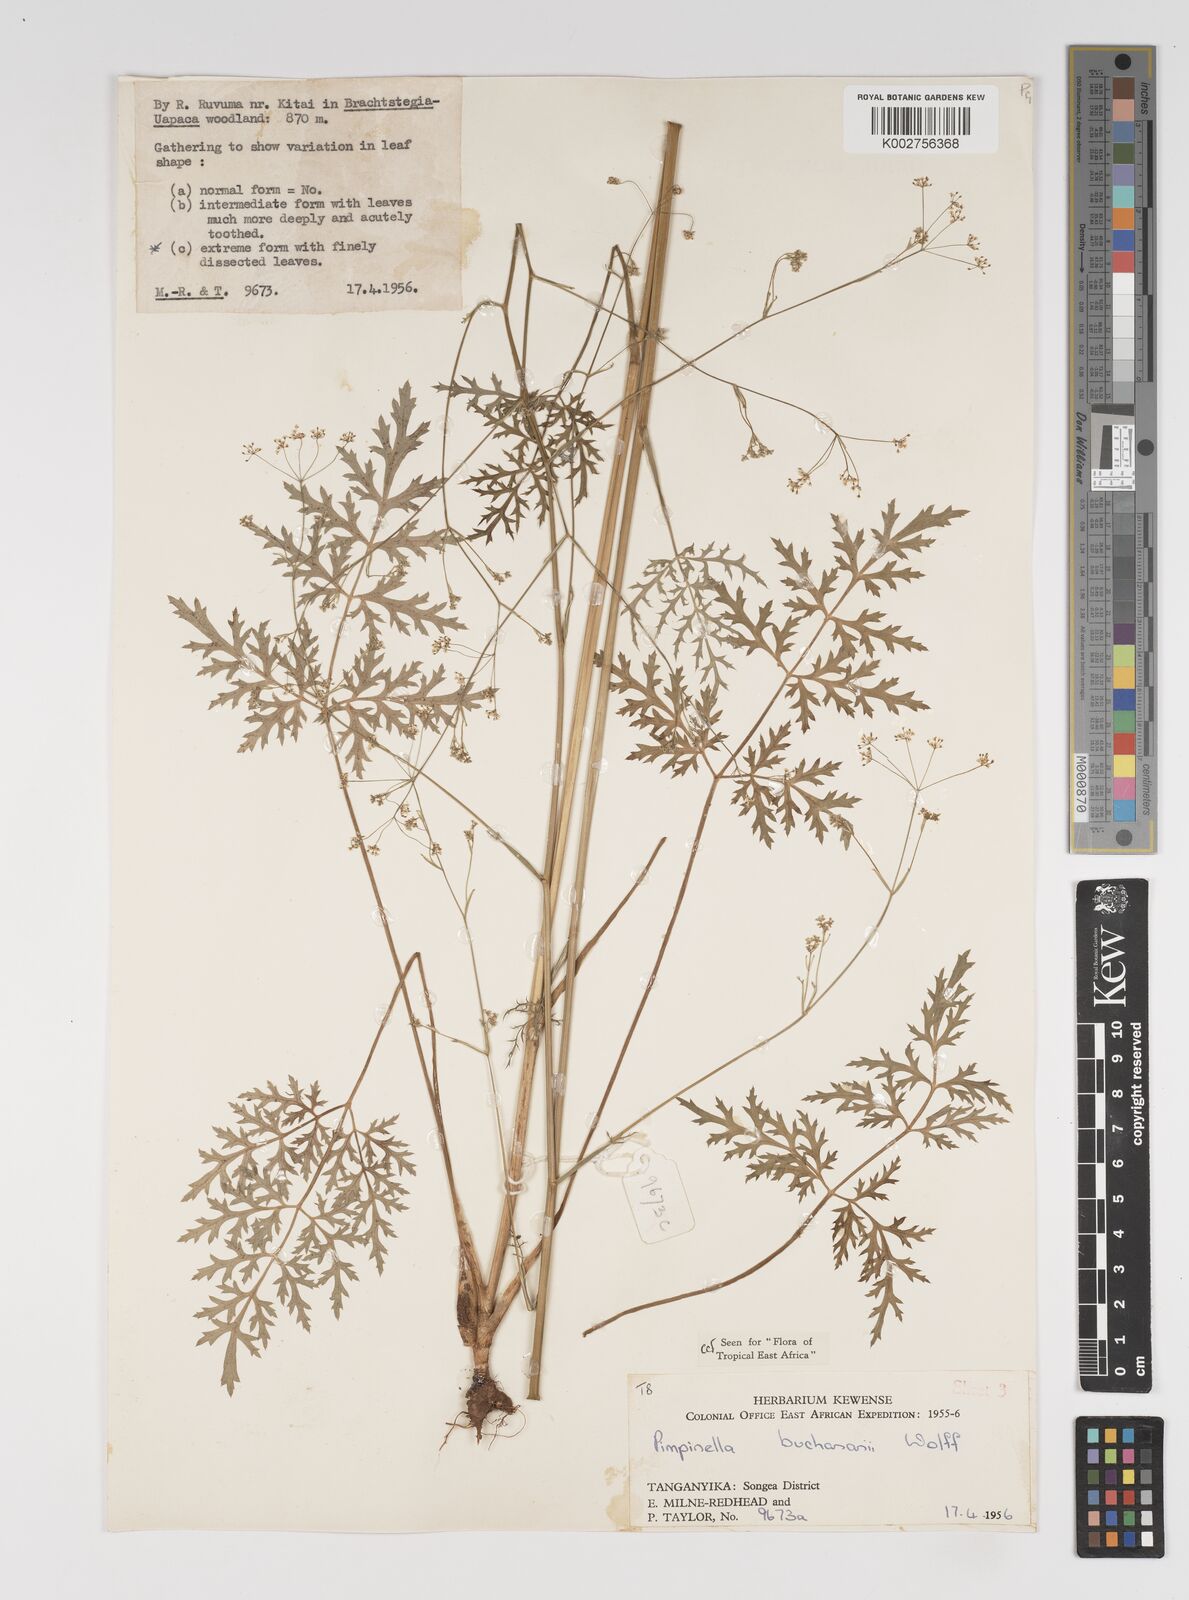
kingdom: Plantae
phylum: Tracheophyta
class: Magnoliopsida
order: Apiales
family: Apiaceae
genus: Pimpinella
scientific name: Pimpinella buchananii
